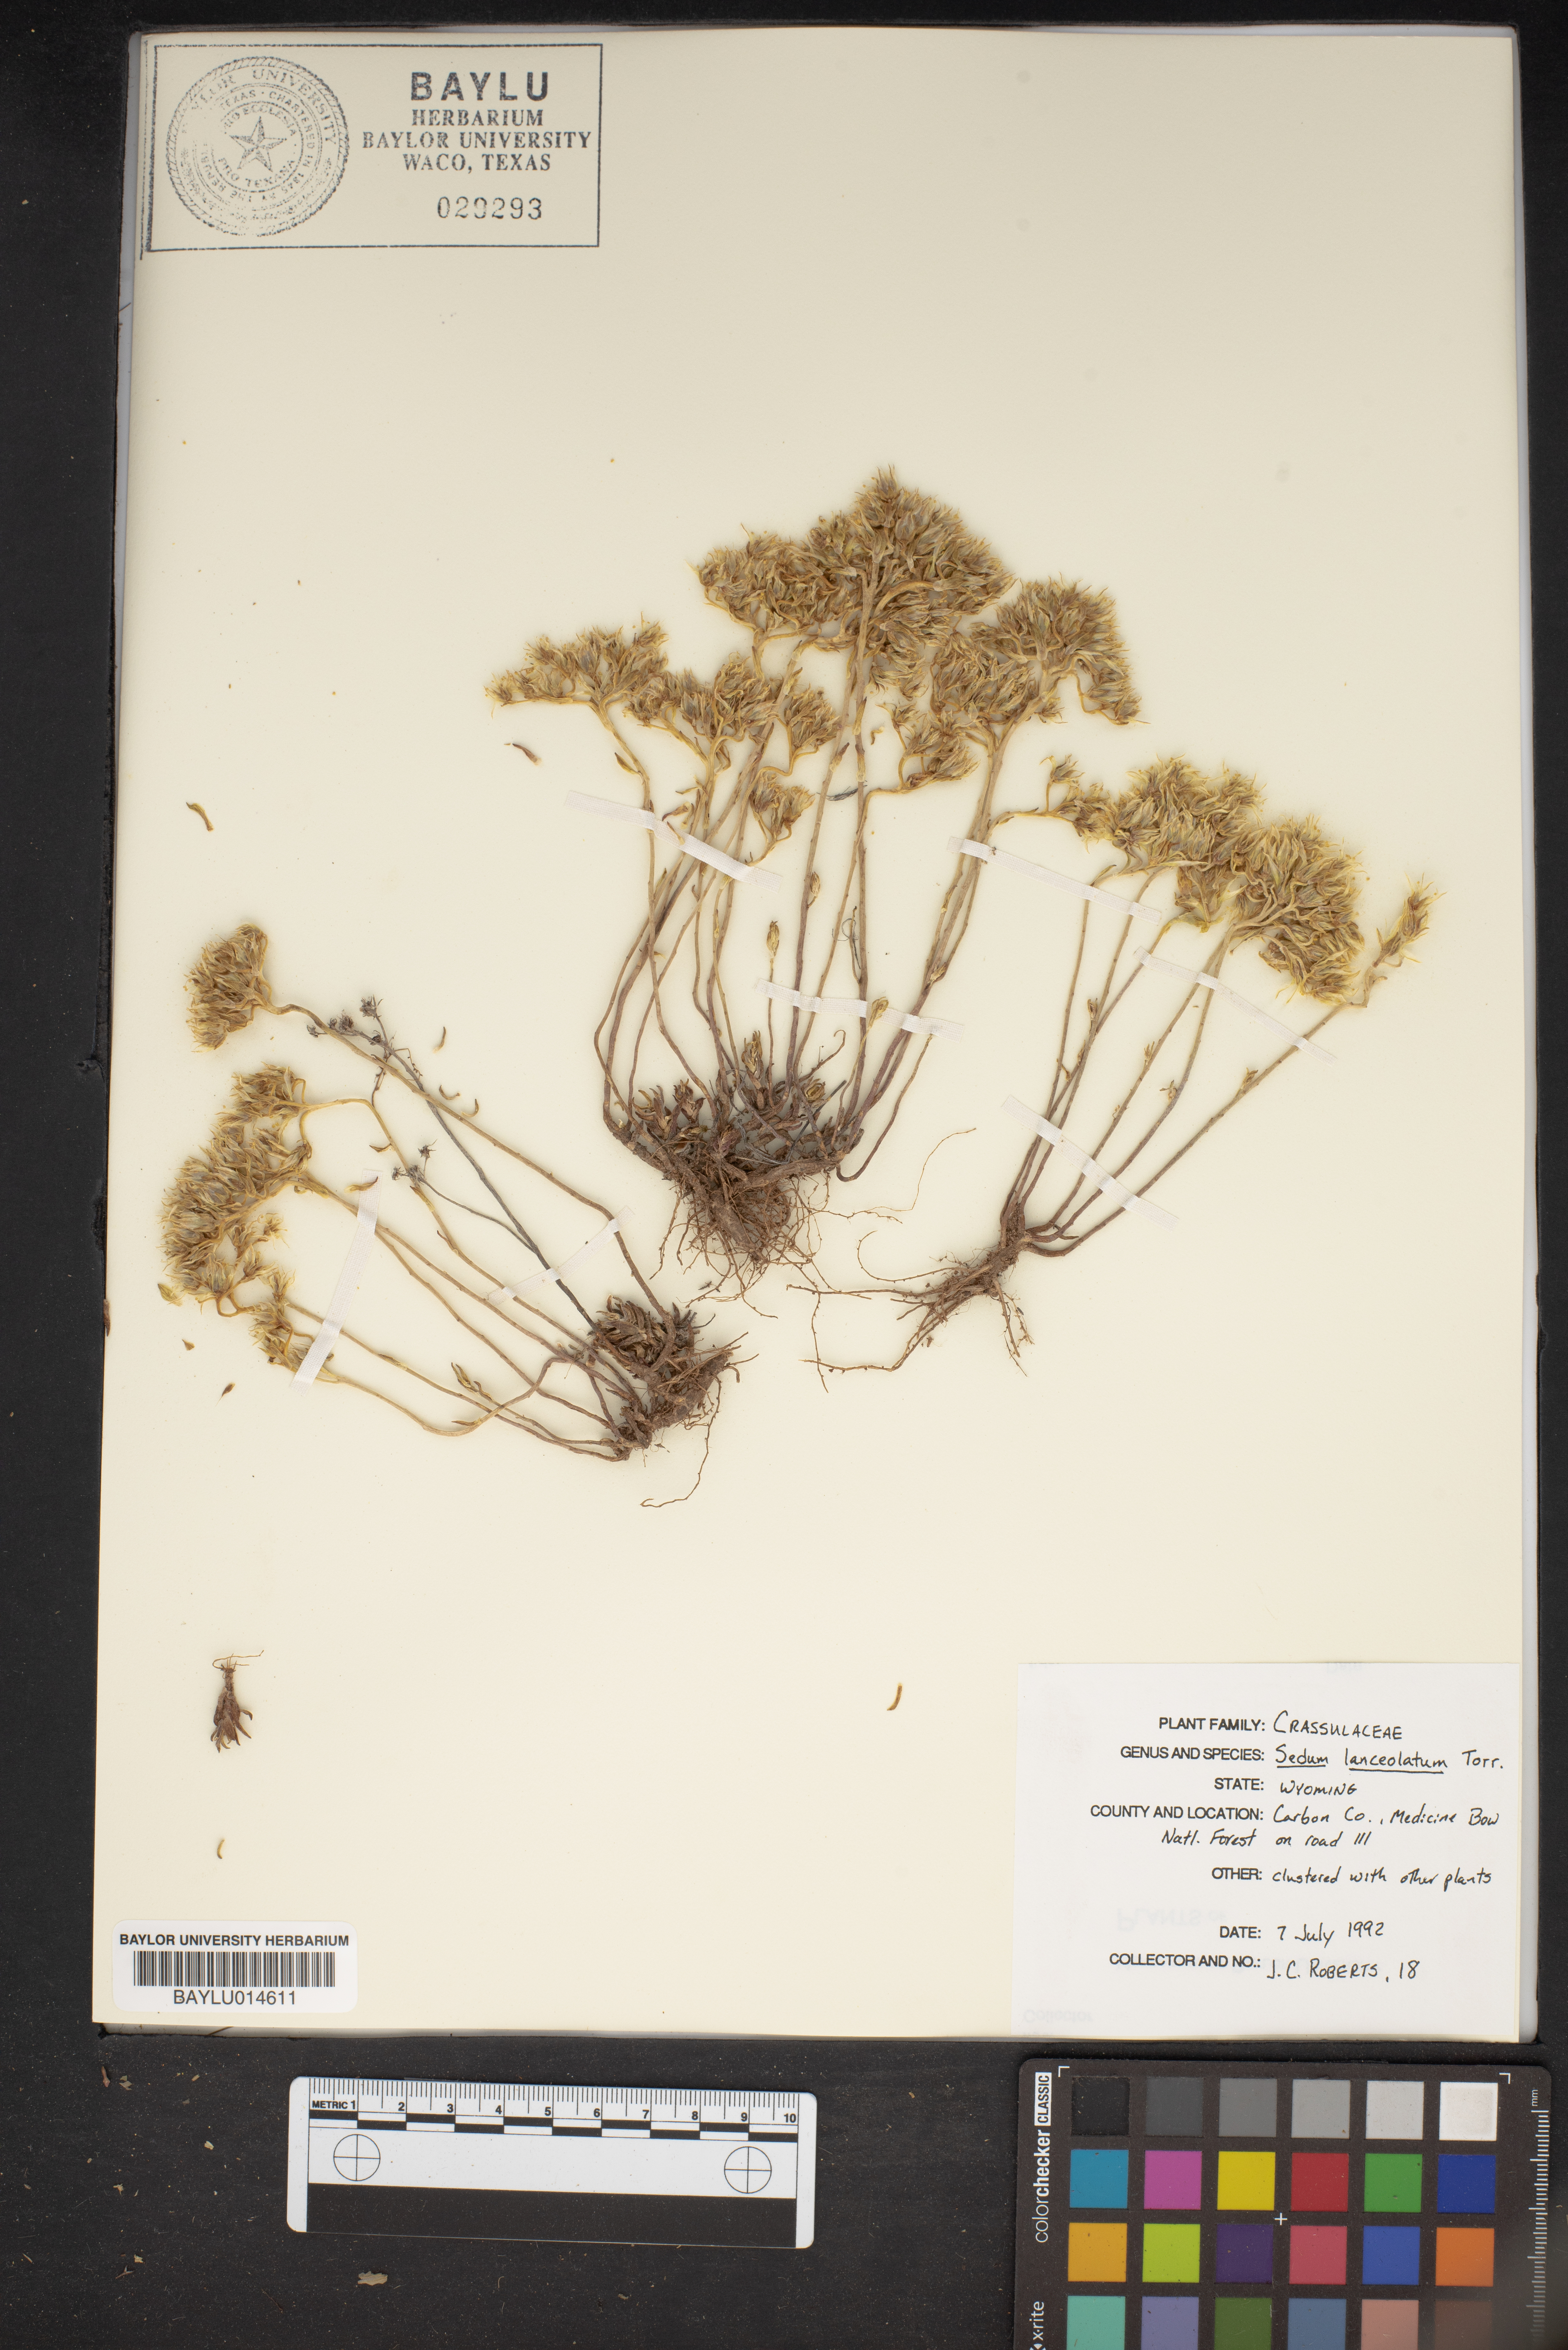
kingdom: Plantae
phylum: Tracheophyta
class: Magnoliopsida
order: Saxifragales
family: Crassulaceae
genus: Sedum
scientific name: Sedum lanceolatum
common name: Common stonecrop
